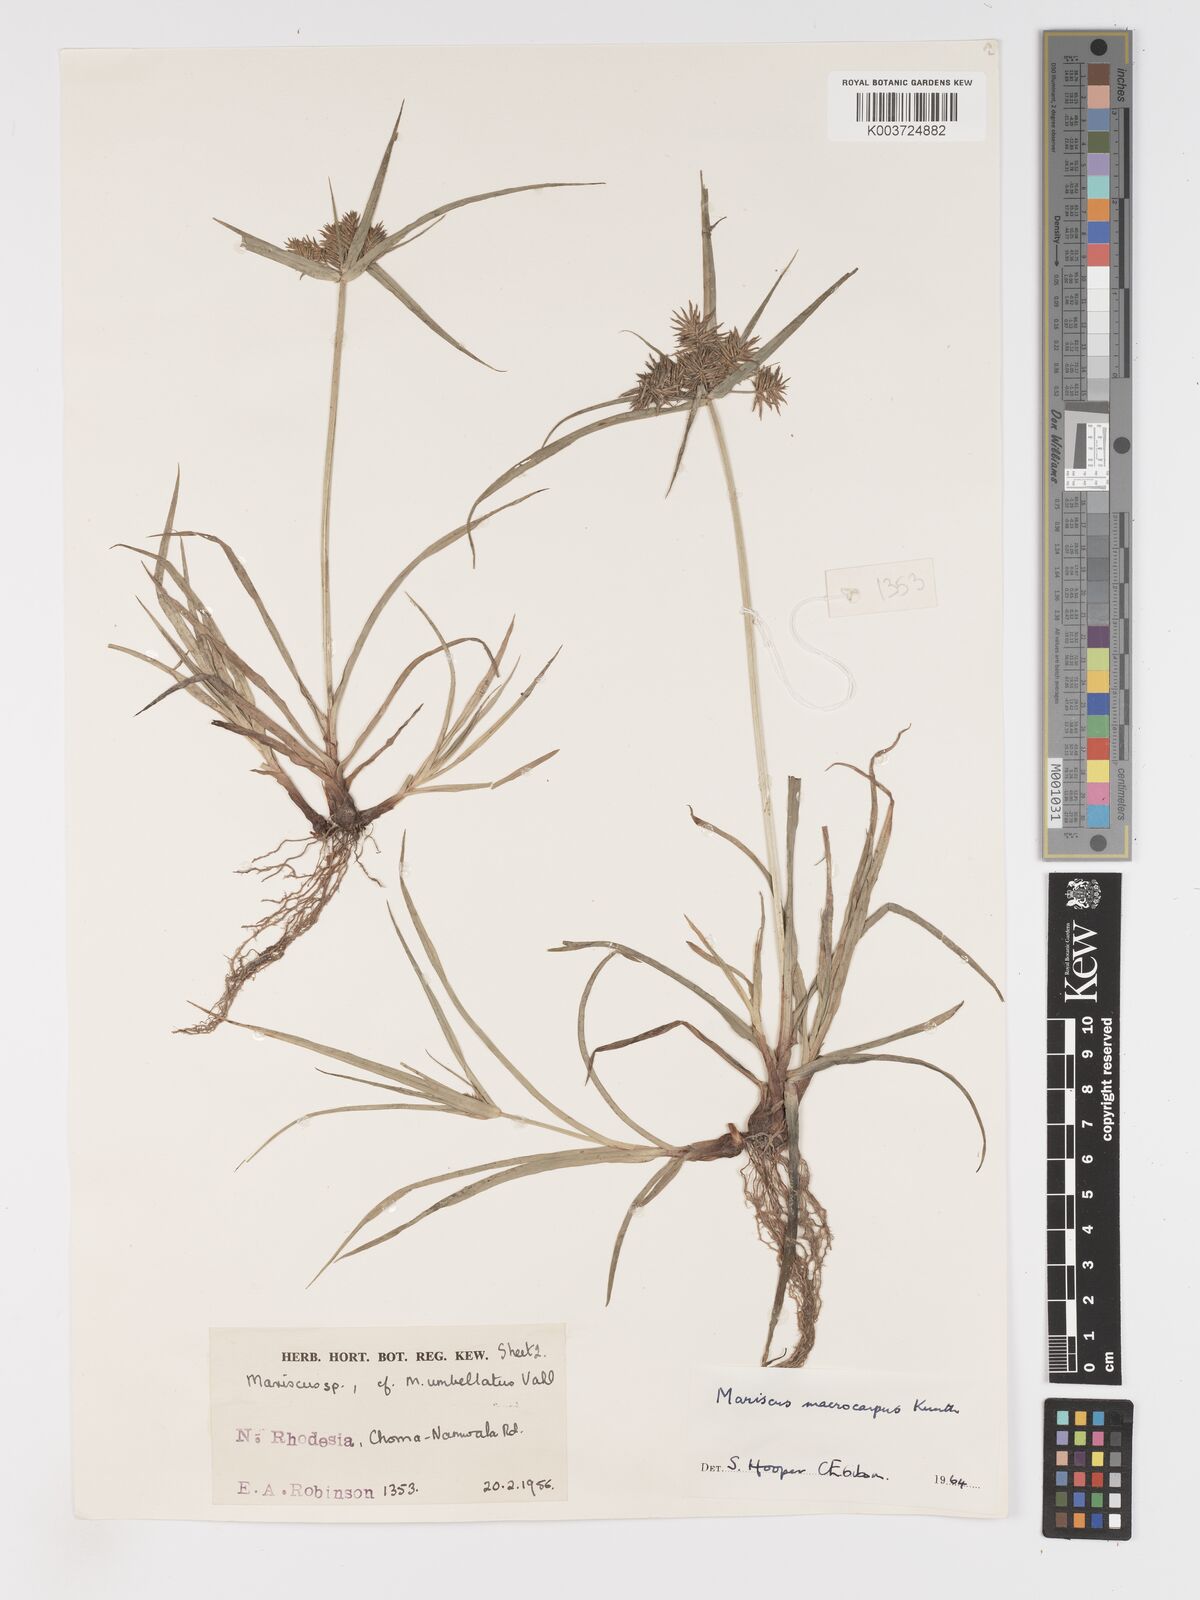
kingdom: Plantae
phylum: Tracheophyta
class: Liliopsida
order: Poales
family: Cyperaceae
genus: Cyperus
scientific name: Cyperus macrocarpus
